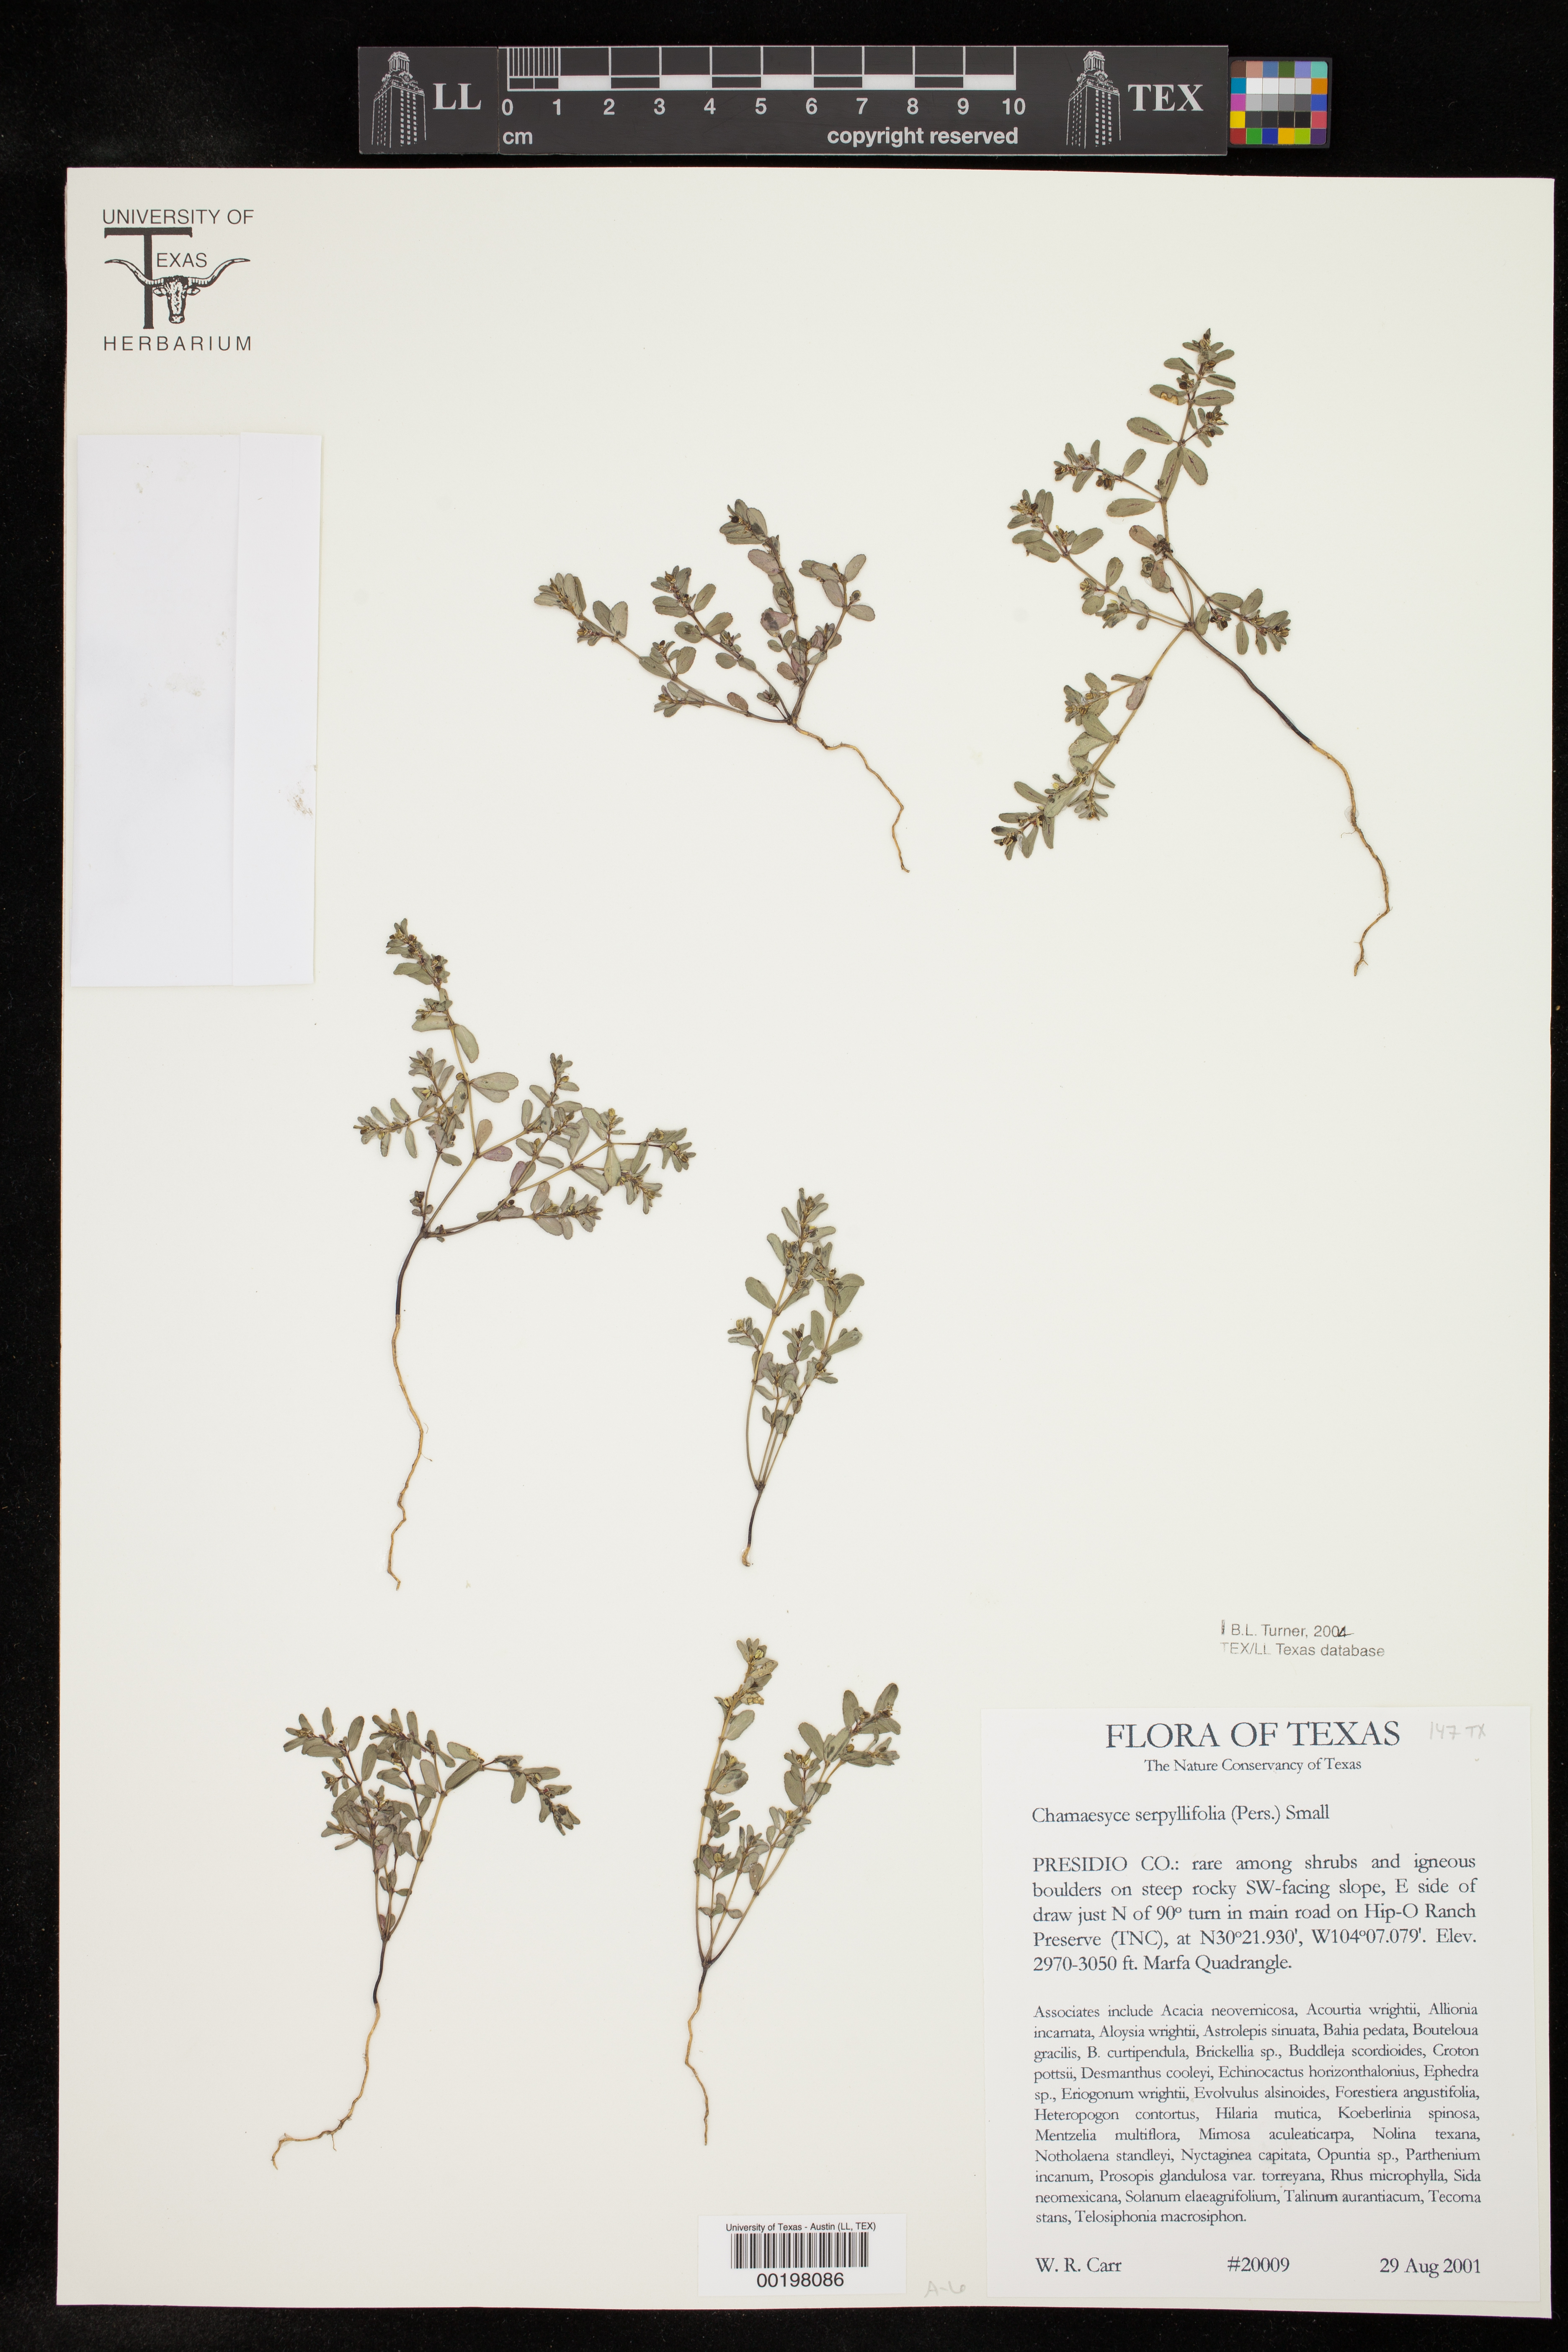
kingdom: Plantae
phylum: Tracheophyta
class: Magnoliopsida
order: Malpighiales
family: Euphorbiaceae
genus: Euphorbia
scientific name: Euphorbia serpillifolia
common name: Thyme-leaf spurge
